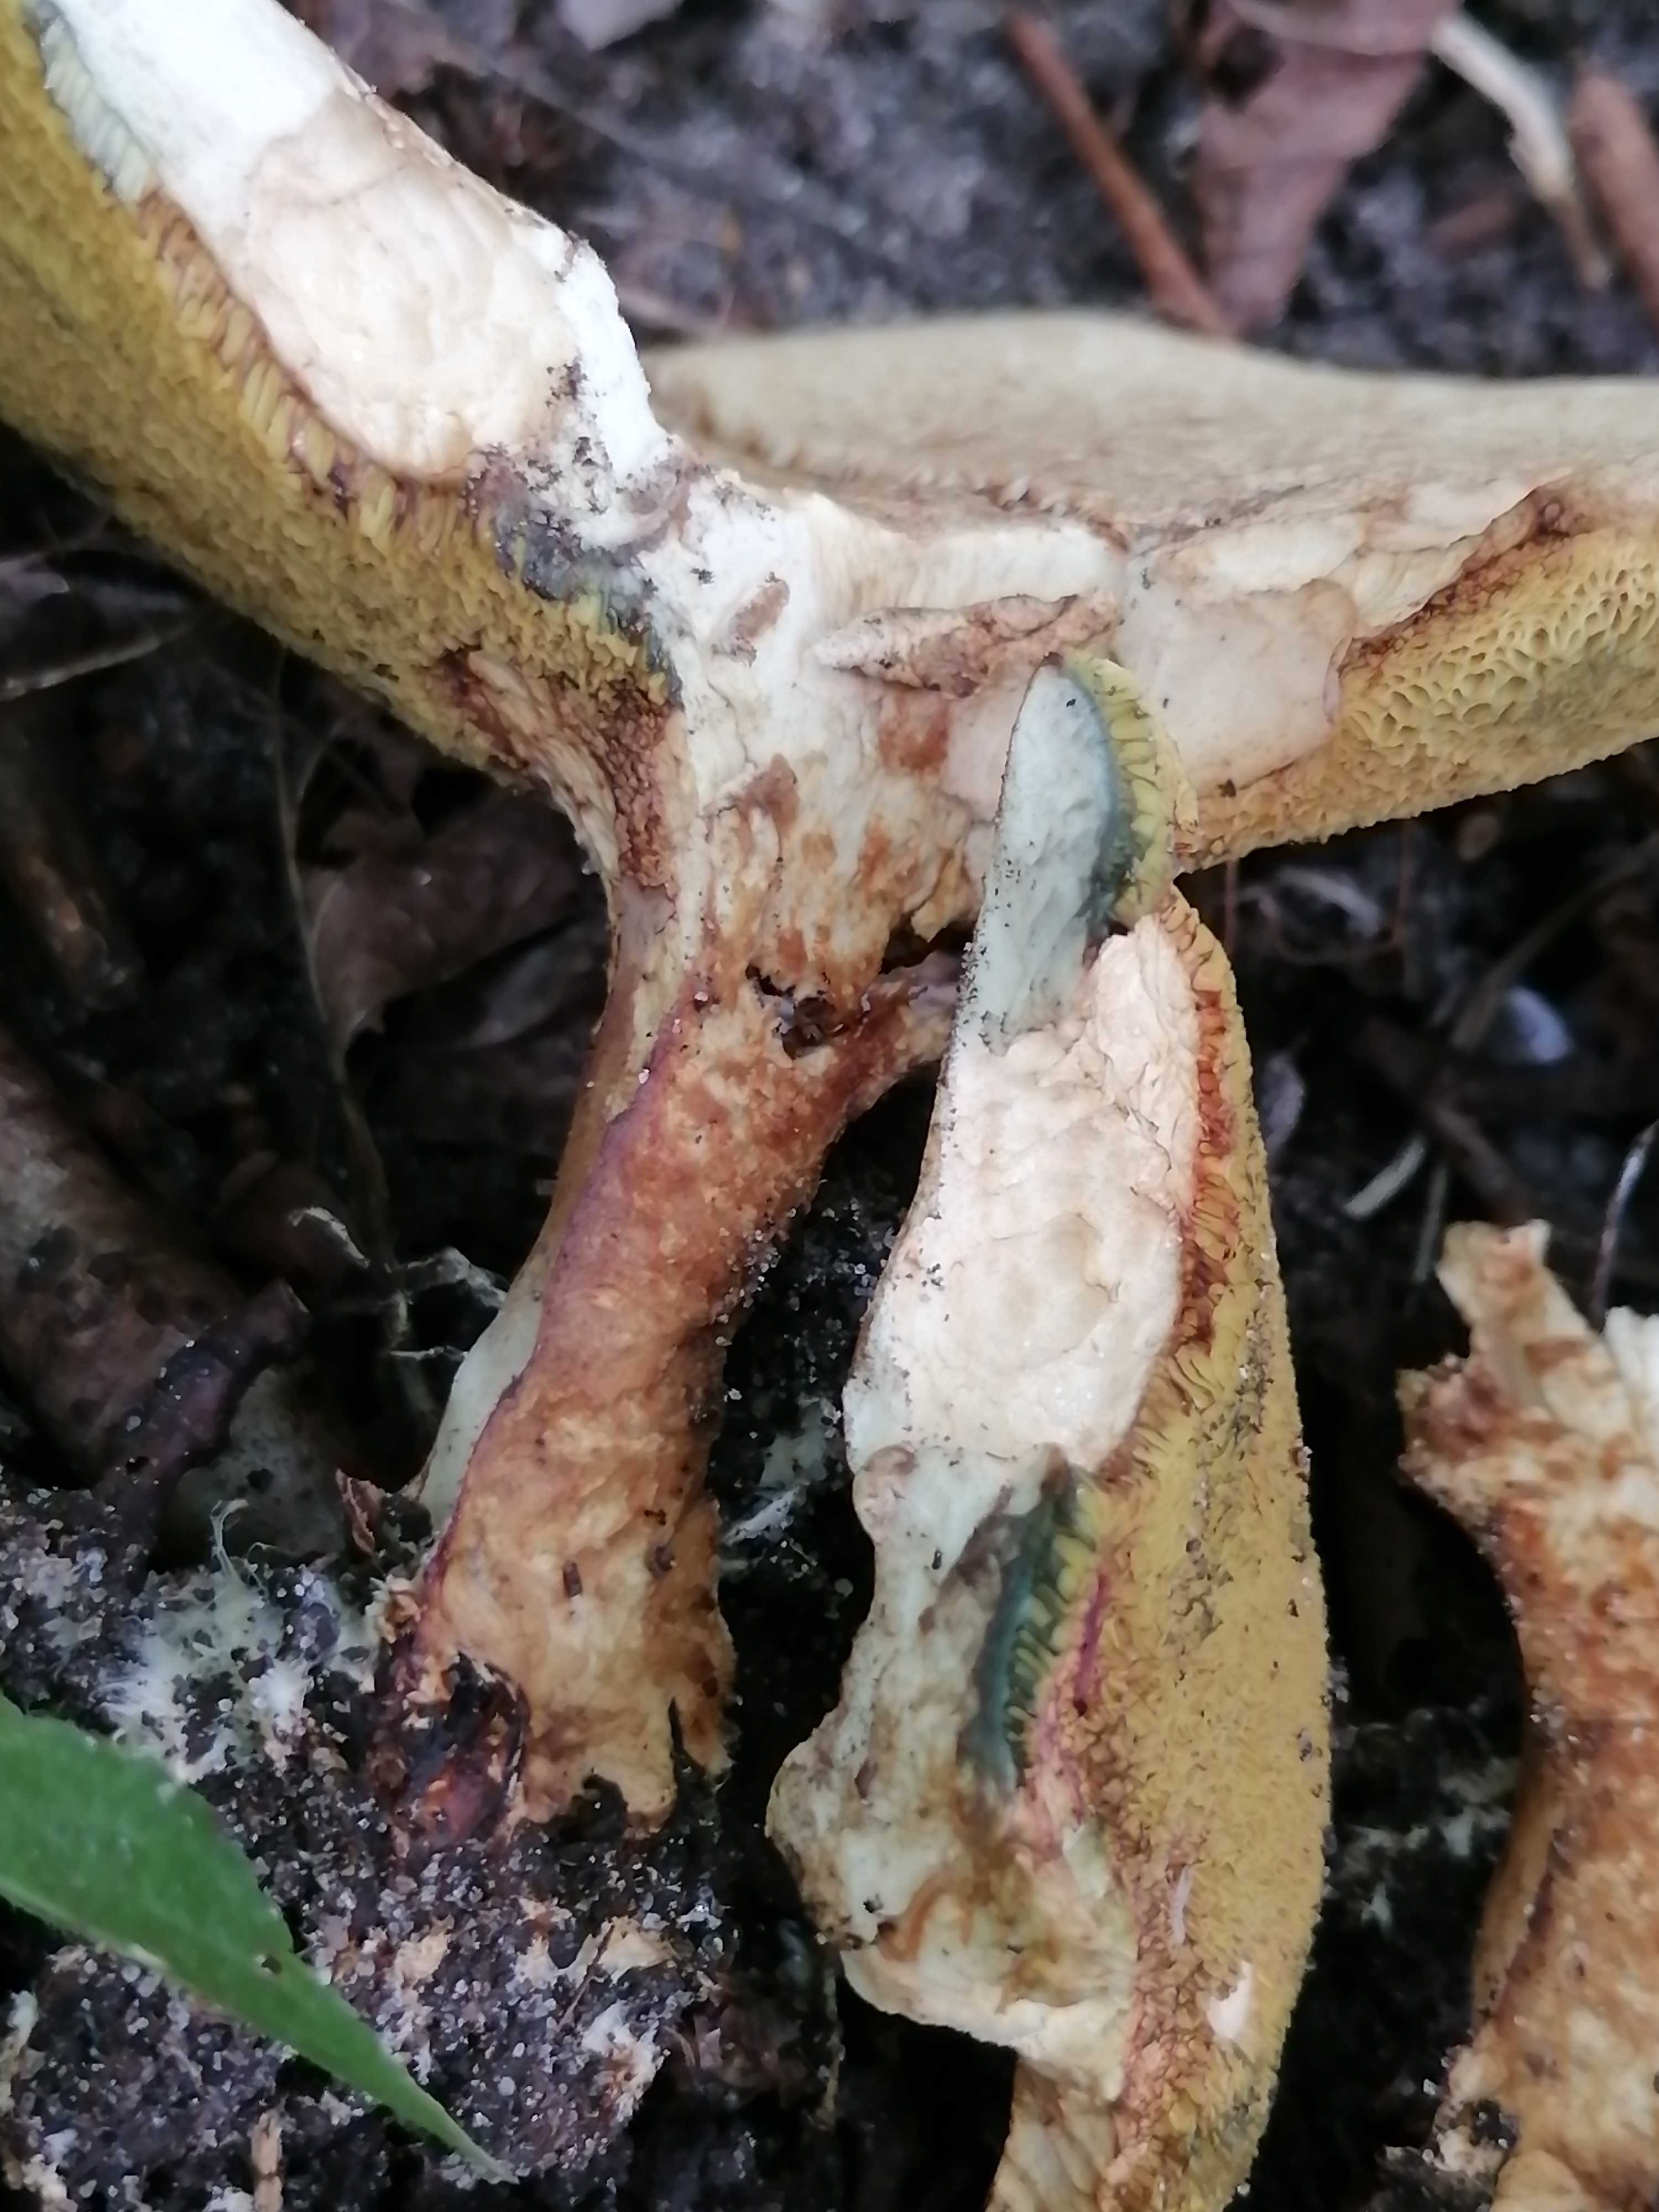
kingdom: Fungi
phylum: Basidiomycota
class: Agaricomycetes
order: Boletales
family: Paxillaceae
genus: Gyrodon
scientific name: Gyrodon lividus
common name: ellerørhat
